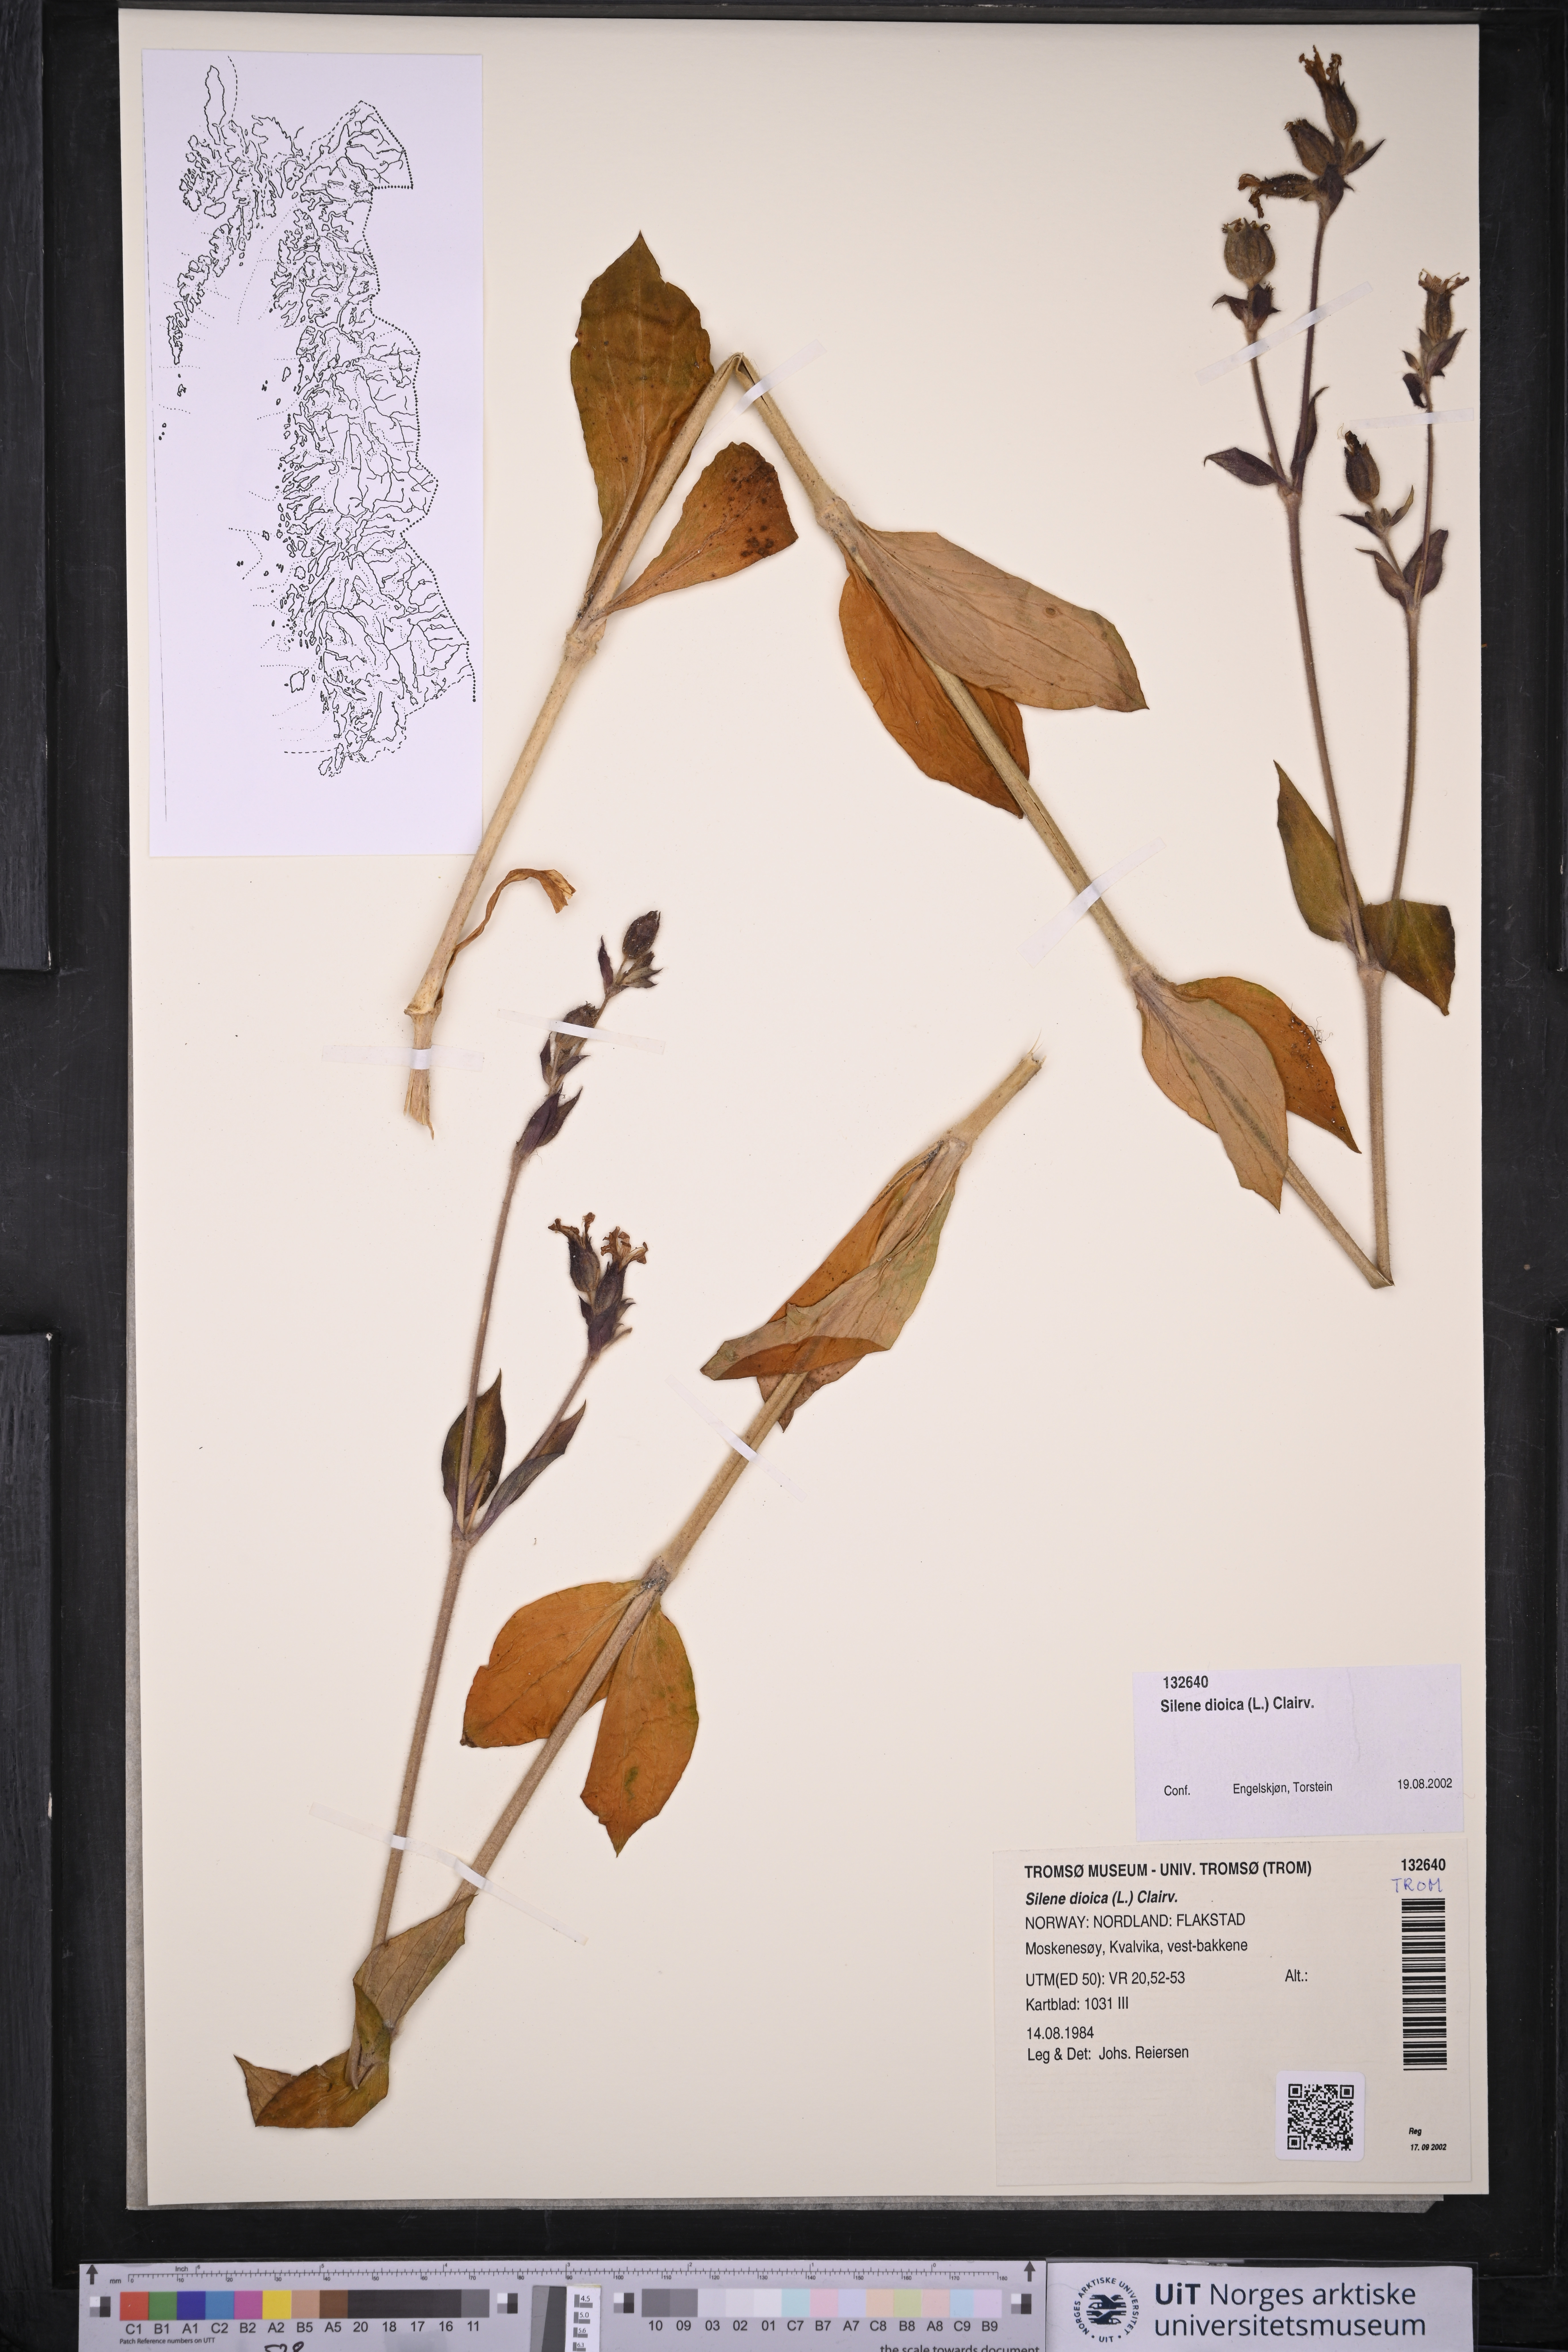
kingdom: Plantae
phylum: Tracheophyta
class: Magnoliopsida
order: Caryophyllales
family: Caryophyllaceae
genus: Silene
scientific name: Silene dioica
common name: Red campion
